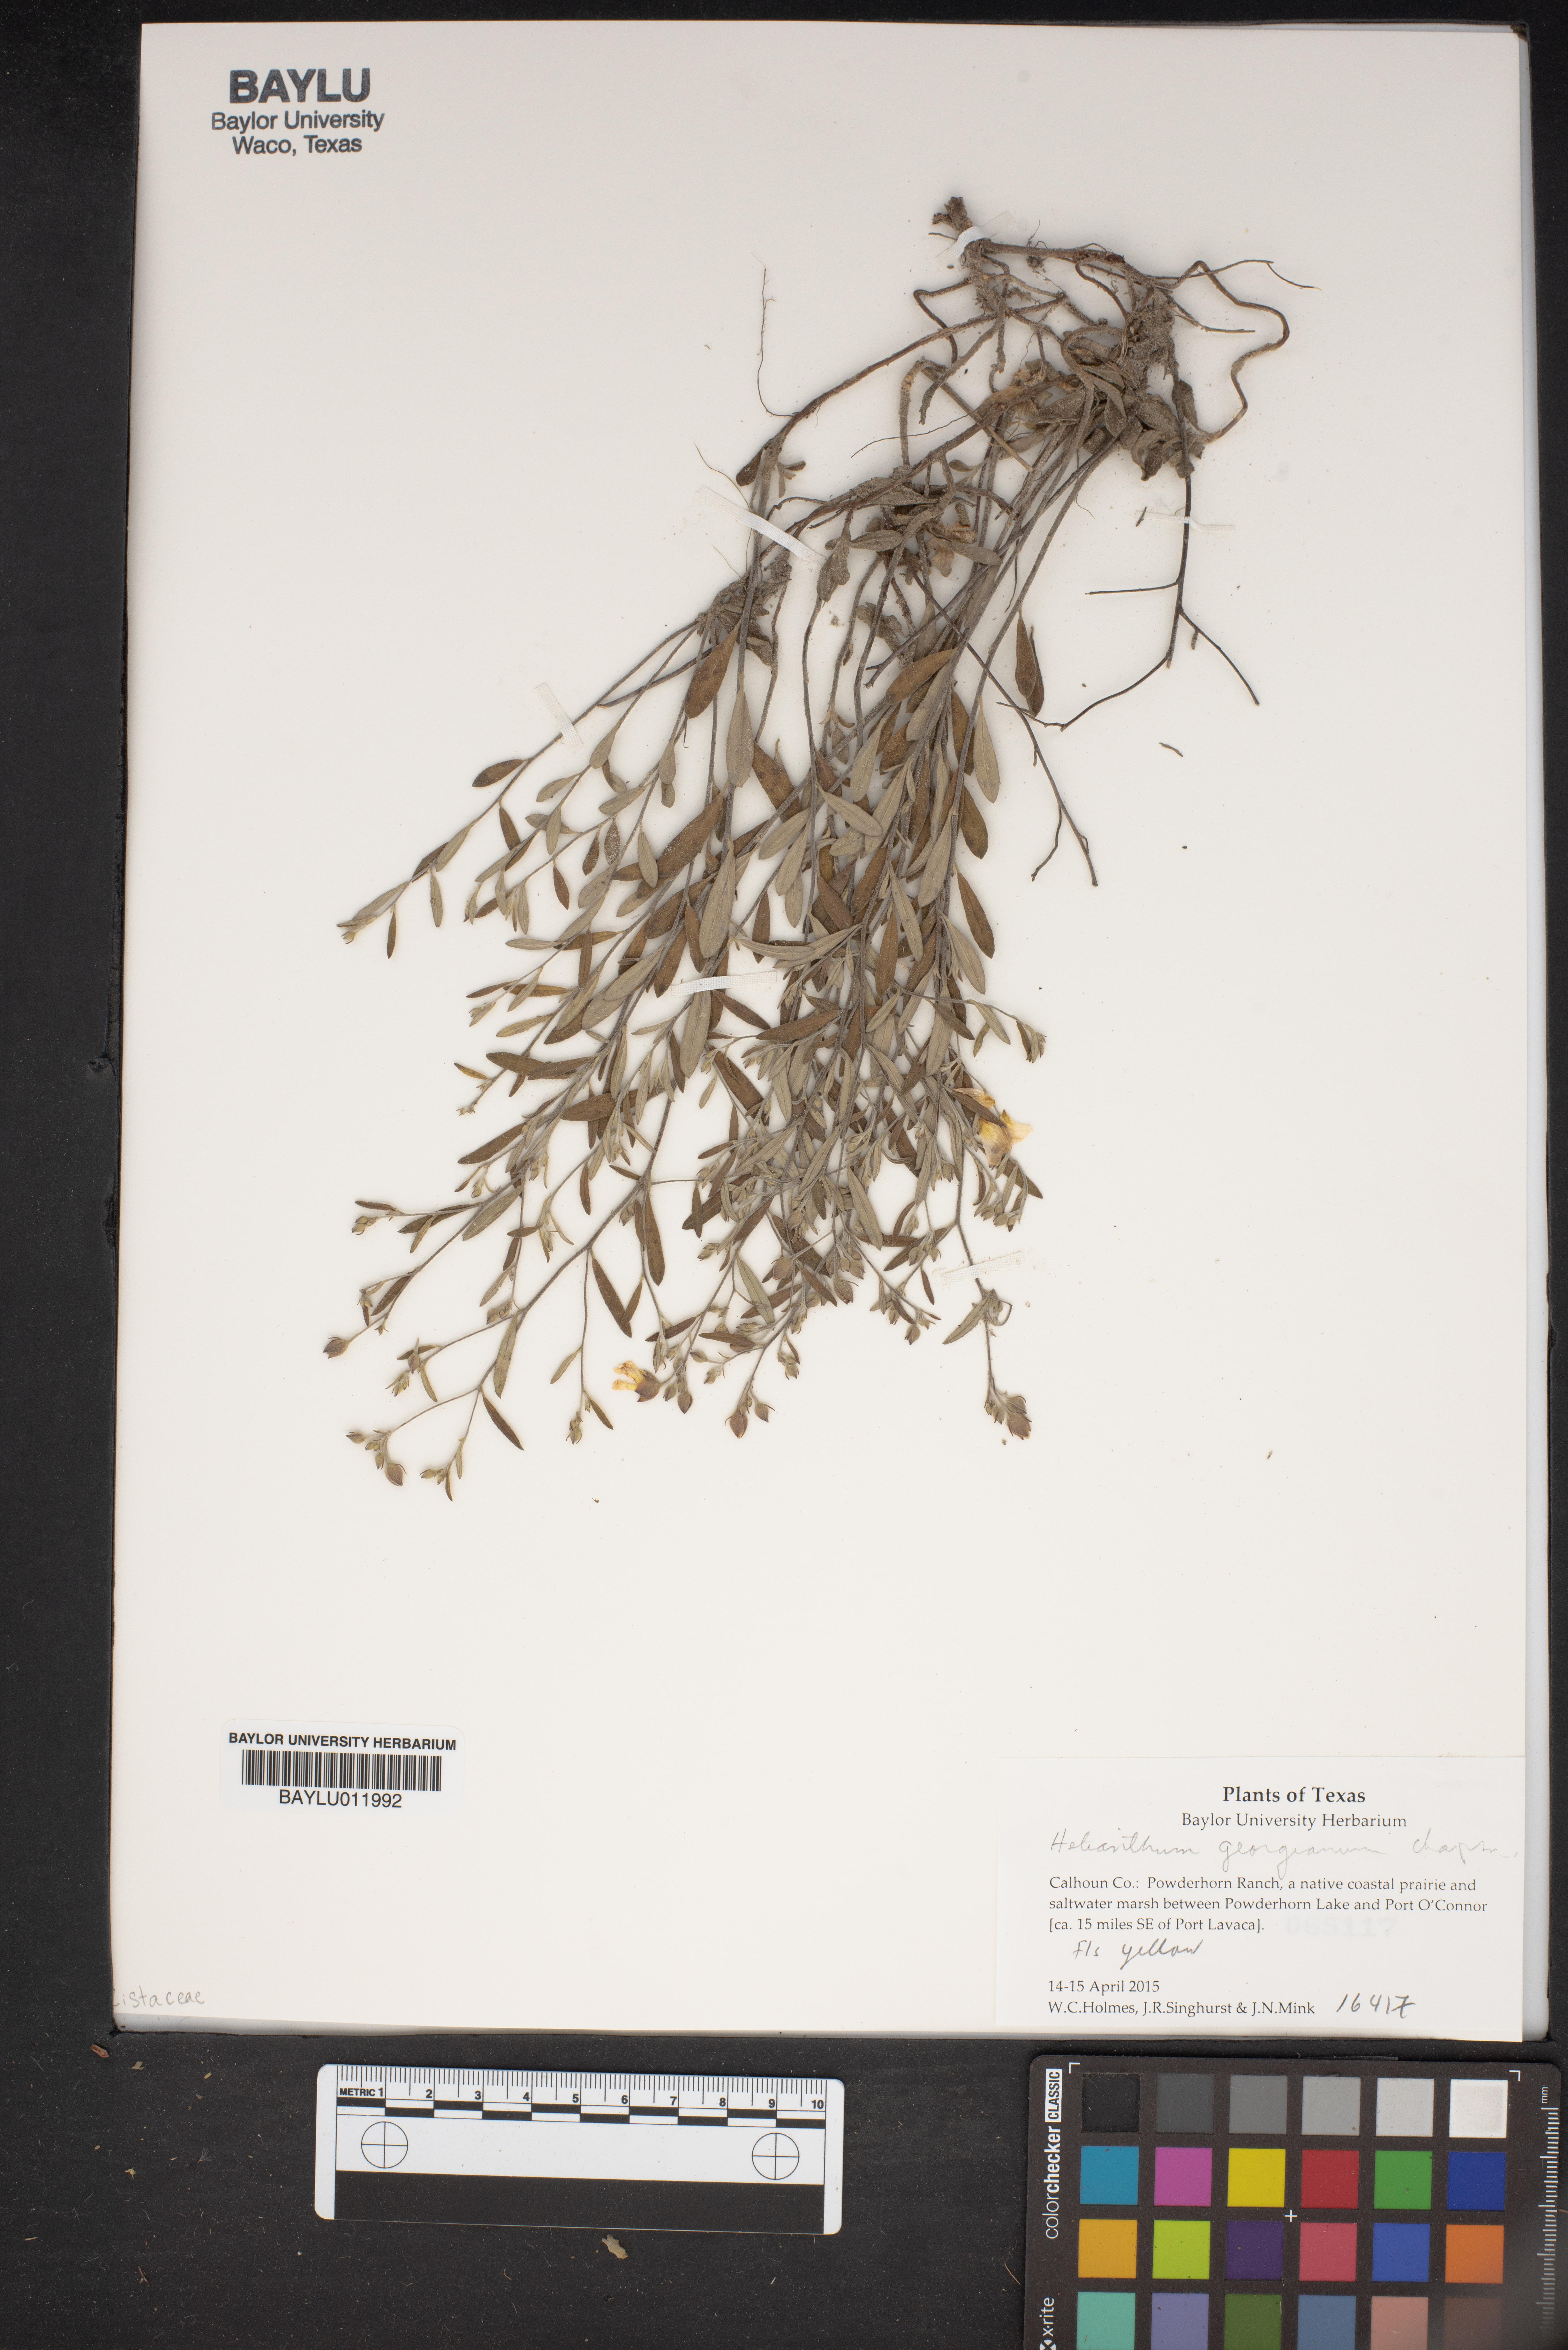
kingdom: Plantae
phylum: Tracheophyta
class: Magnoliopsida
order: Malvales
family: Cistaceae
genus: Crocanthemum
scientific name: Crocanthemum georgianum
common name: Georgia frostweed
